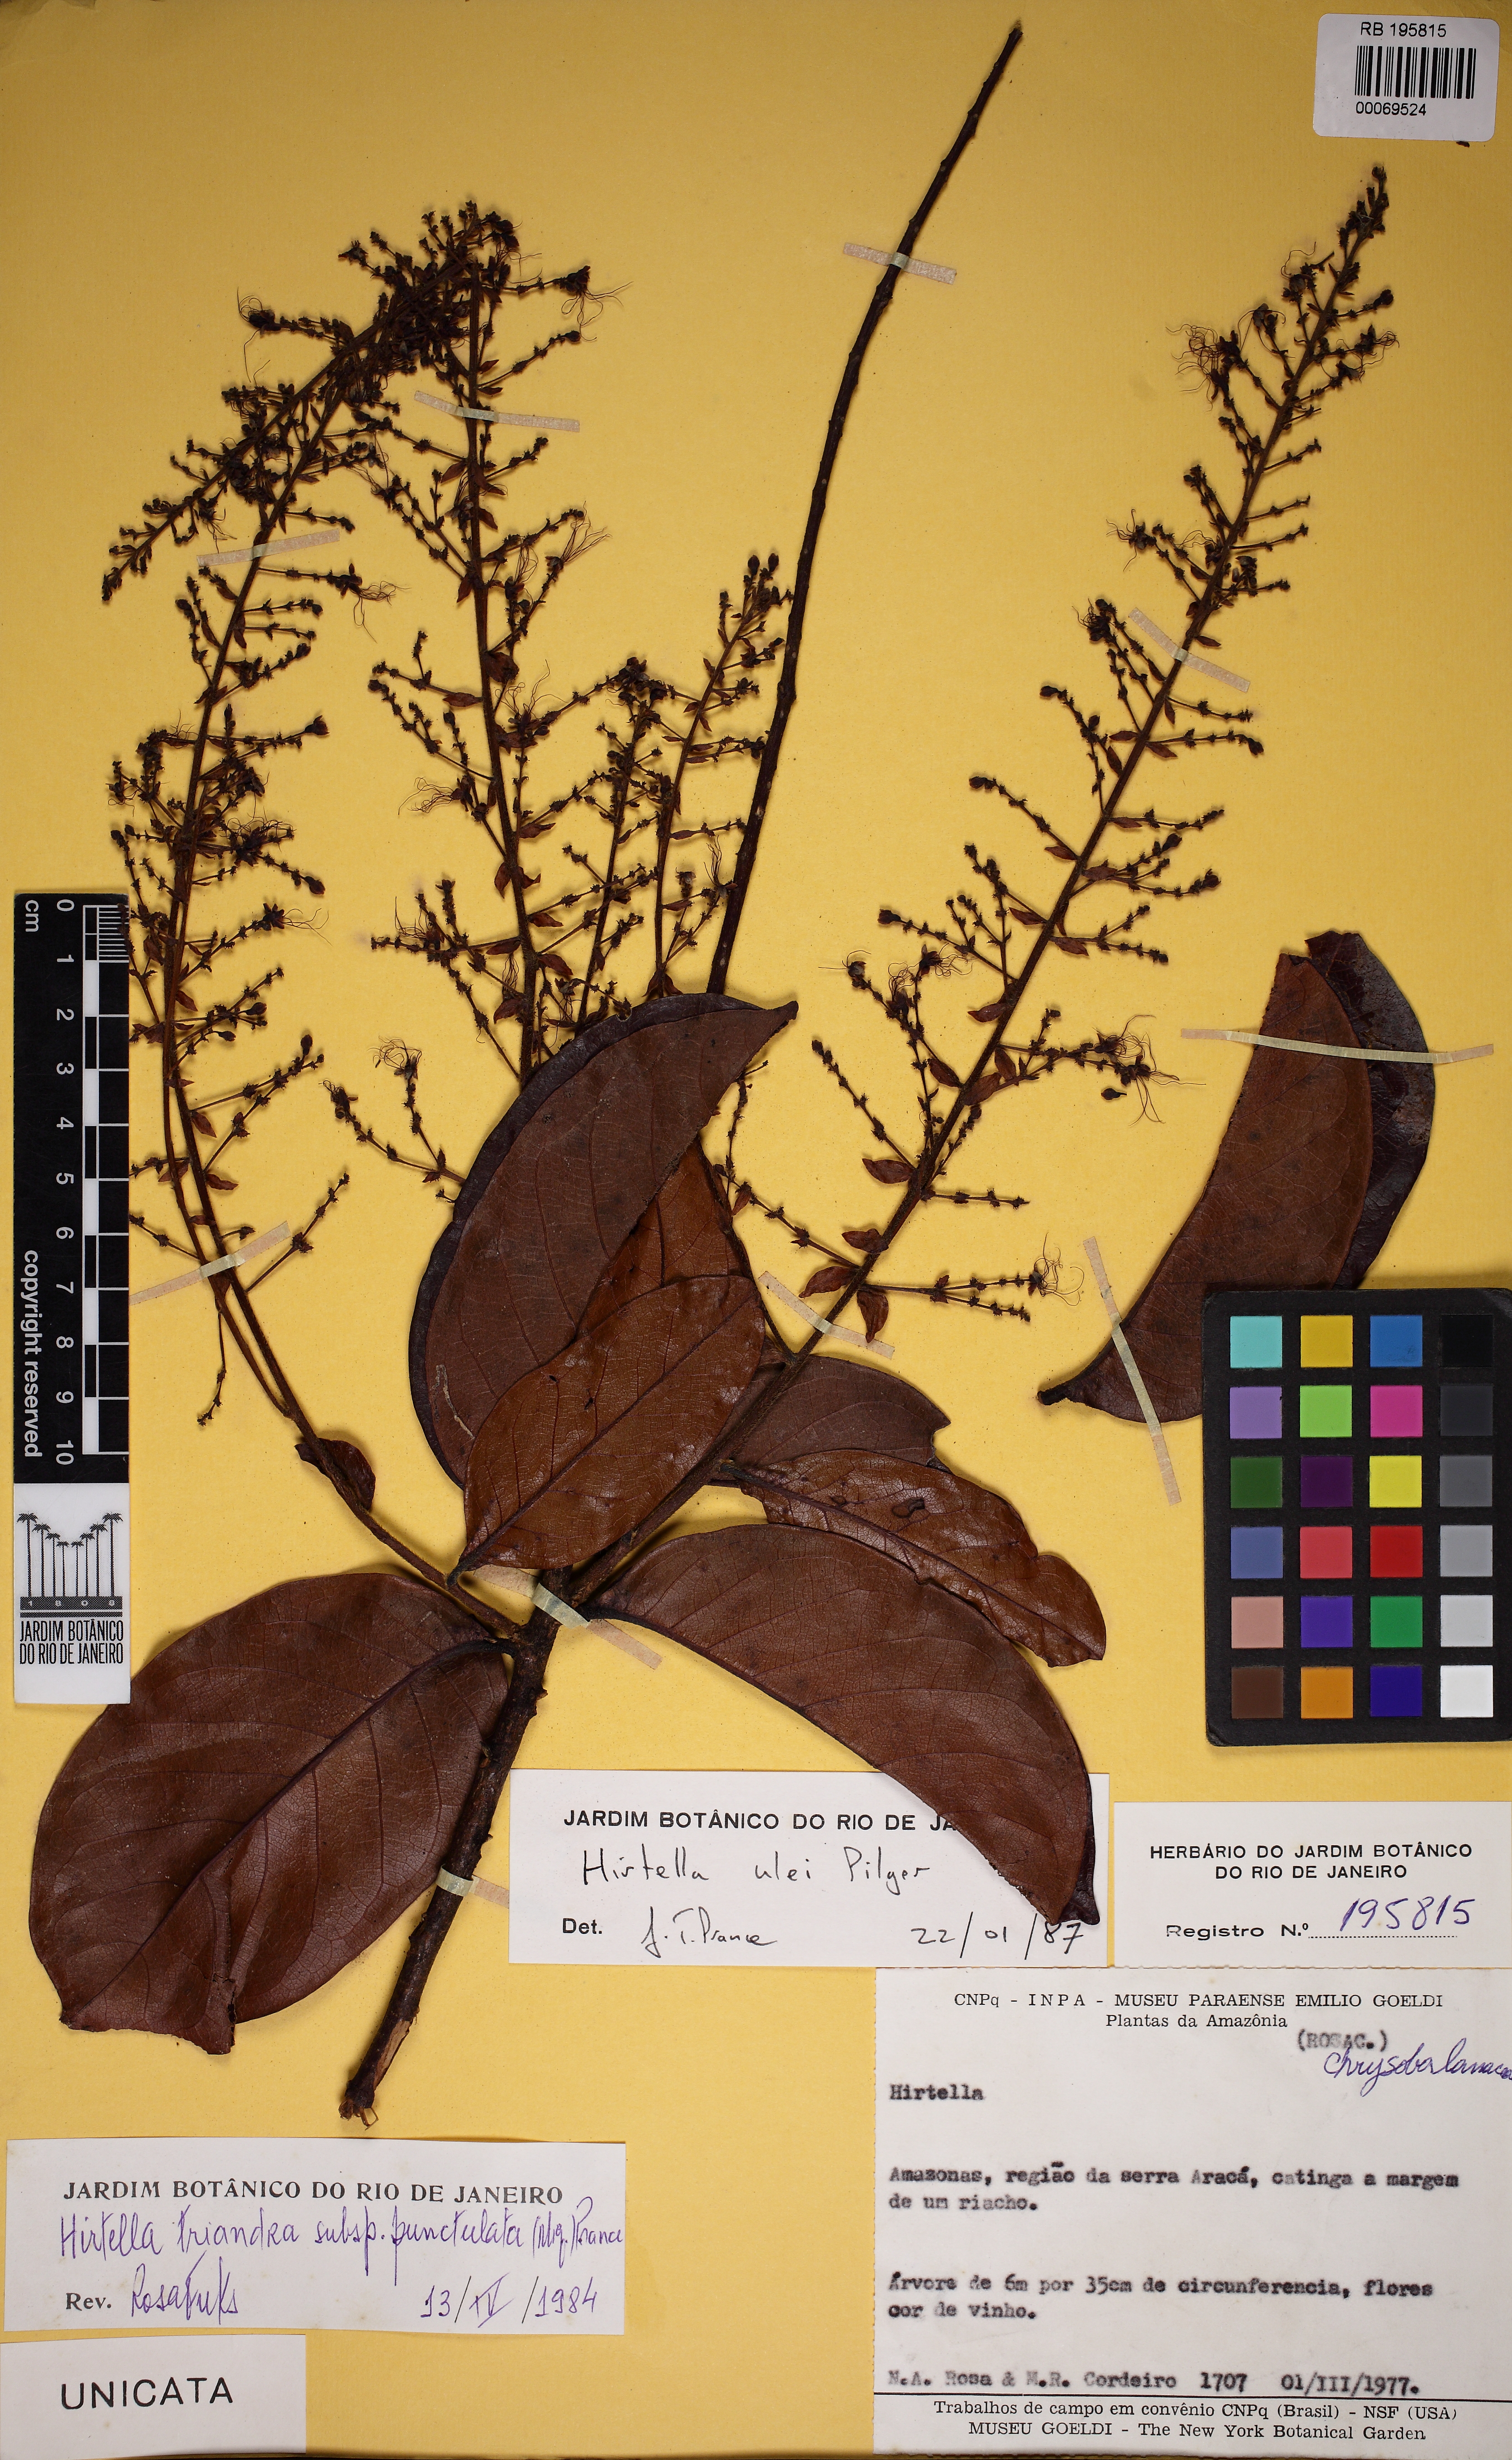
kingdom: Plantae
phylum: Tracheophyta
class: Magnoliopsida
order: Malpighiales
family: Chrysobalanaceae
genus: Hirtella
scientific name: Hirtella ulei
